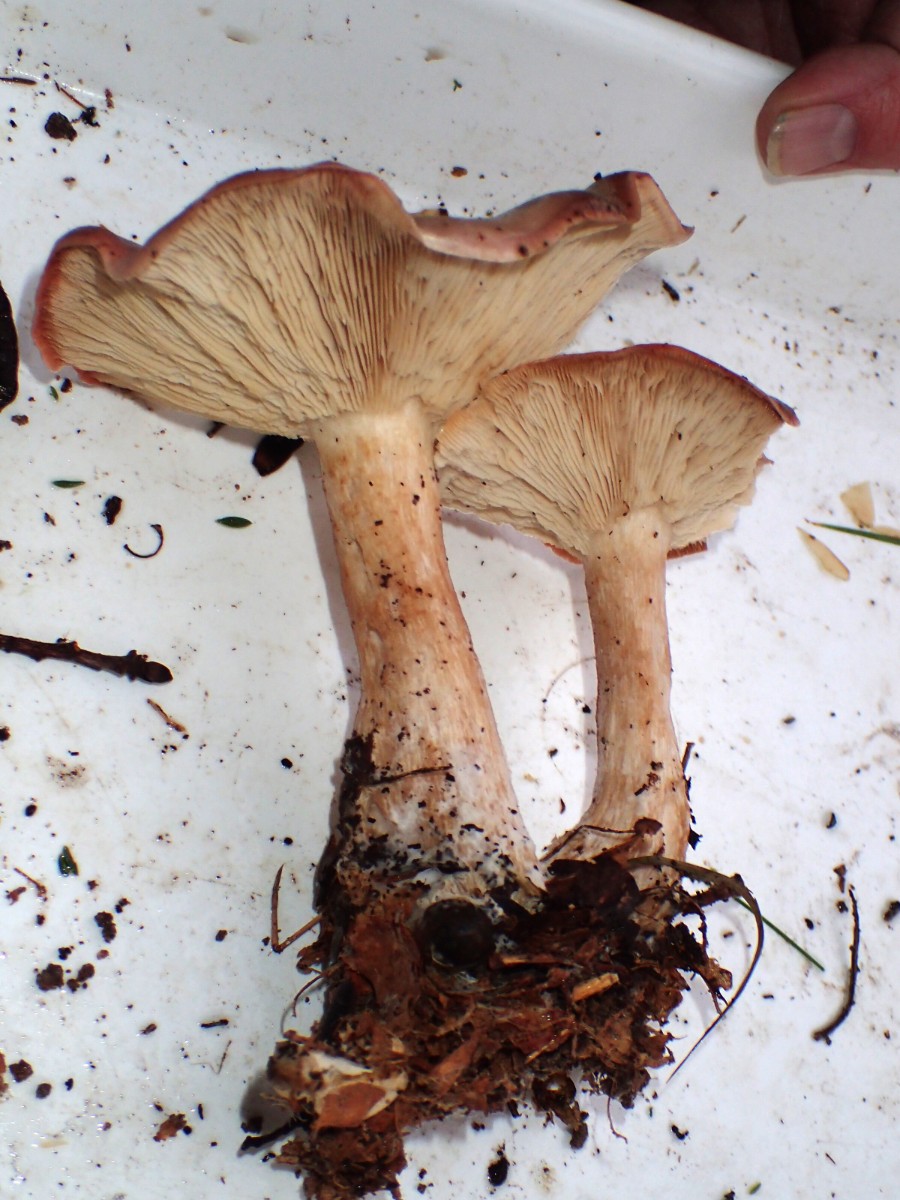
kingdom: Fungi
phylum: Basidiomycota
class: Agaricomycetes
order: Agaricales
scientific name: Agaricales
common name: champignonordenen
